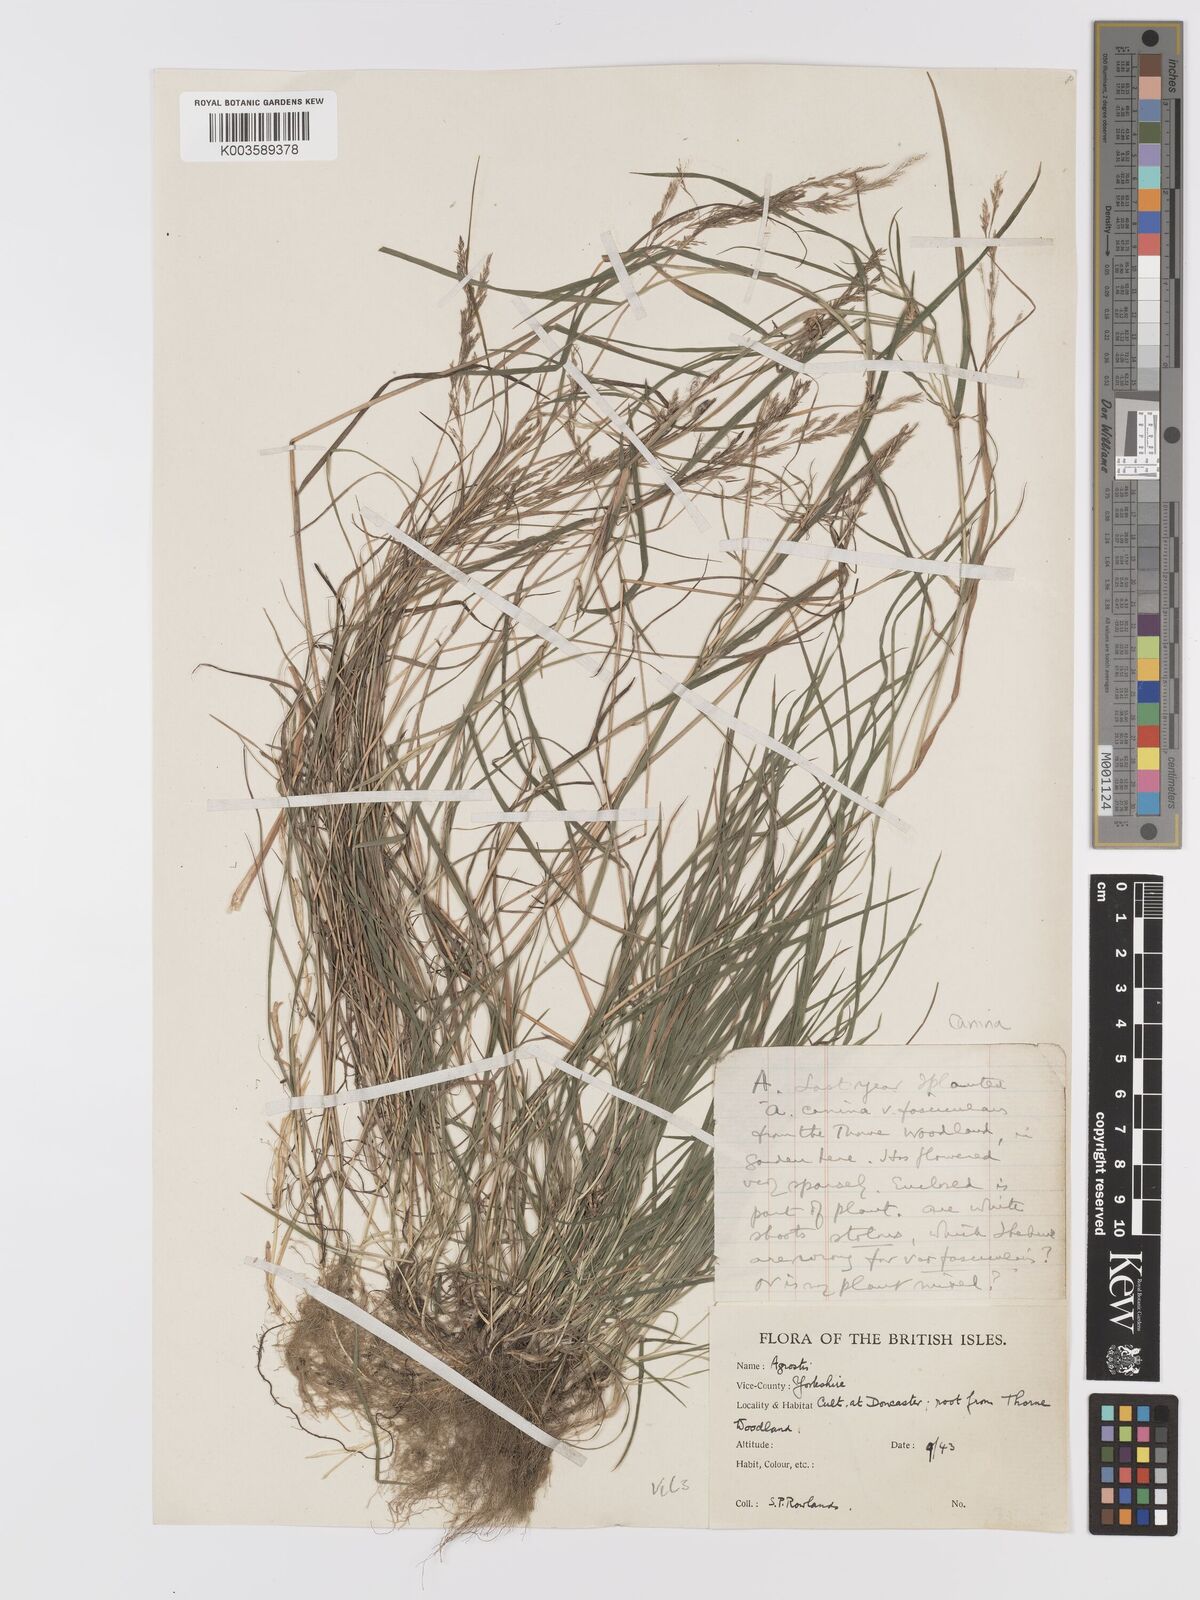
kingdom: Plantae
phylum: Tracheophyta
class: Liliopsida
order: Poales
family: Poaceae
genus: Agrostis
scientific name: Agrostis canina
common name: Velvet bent
